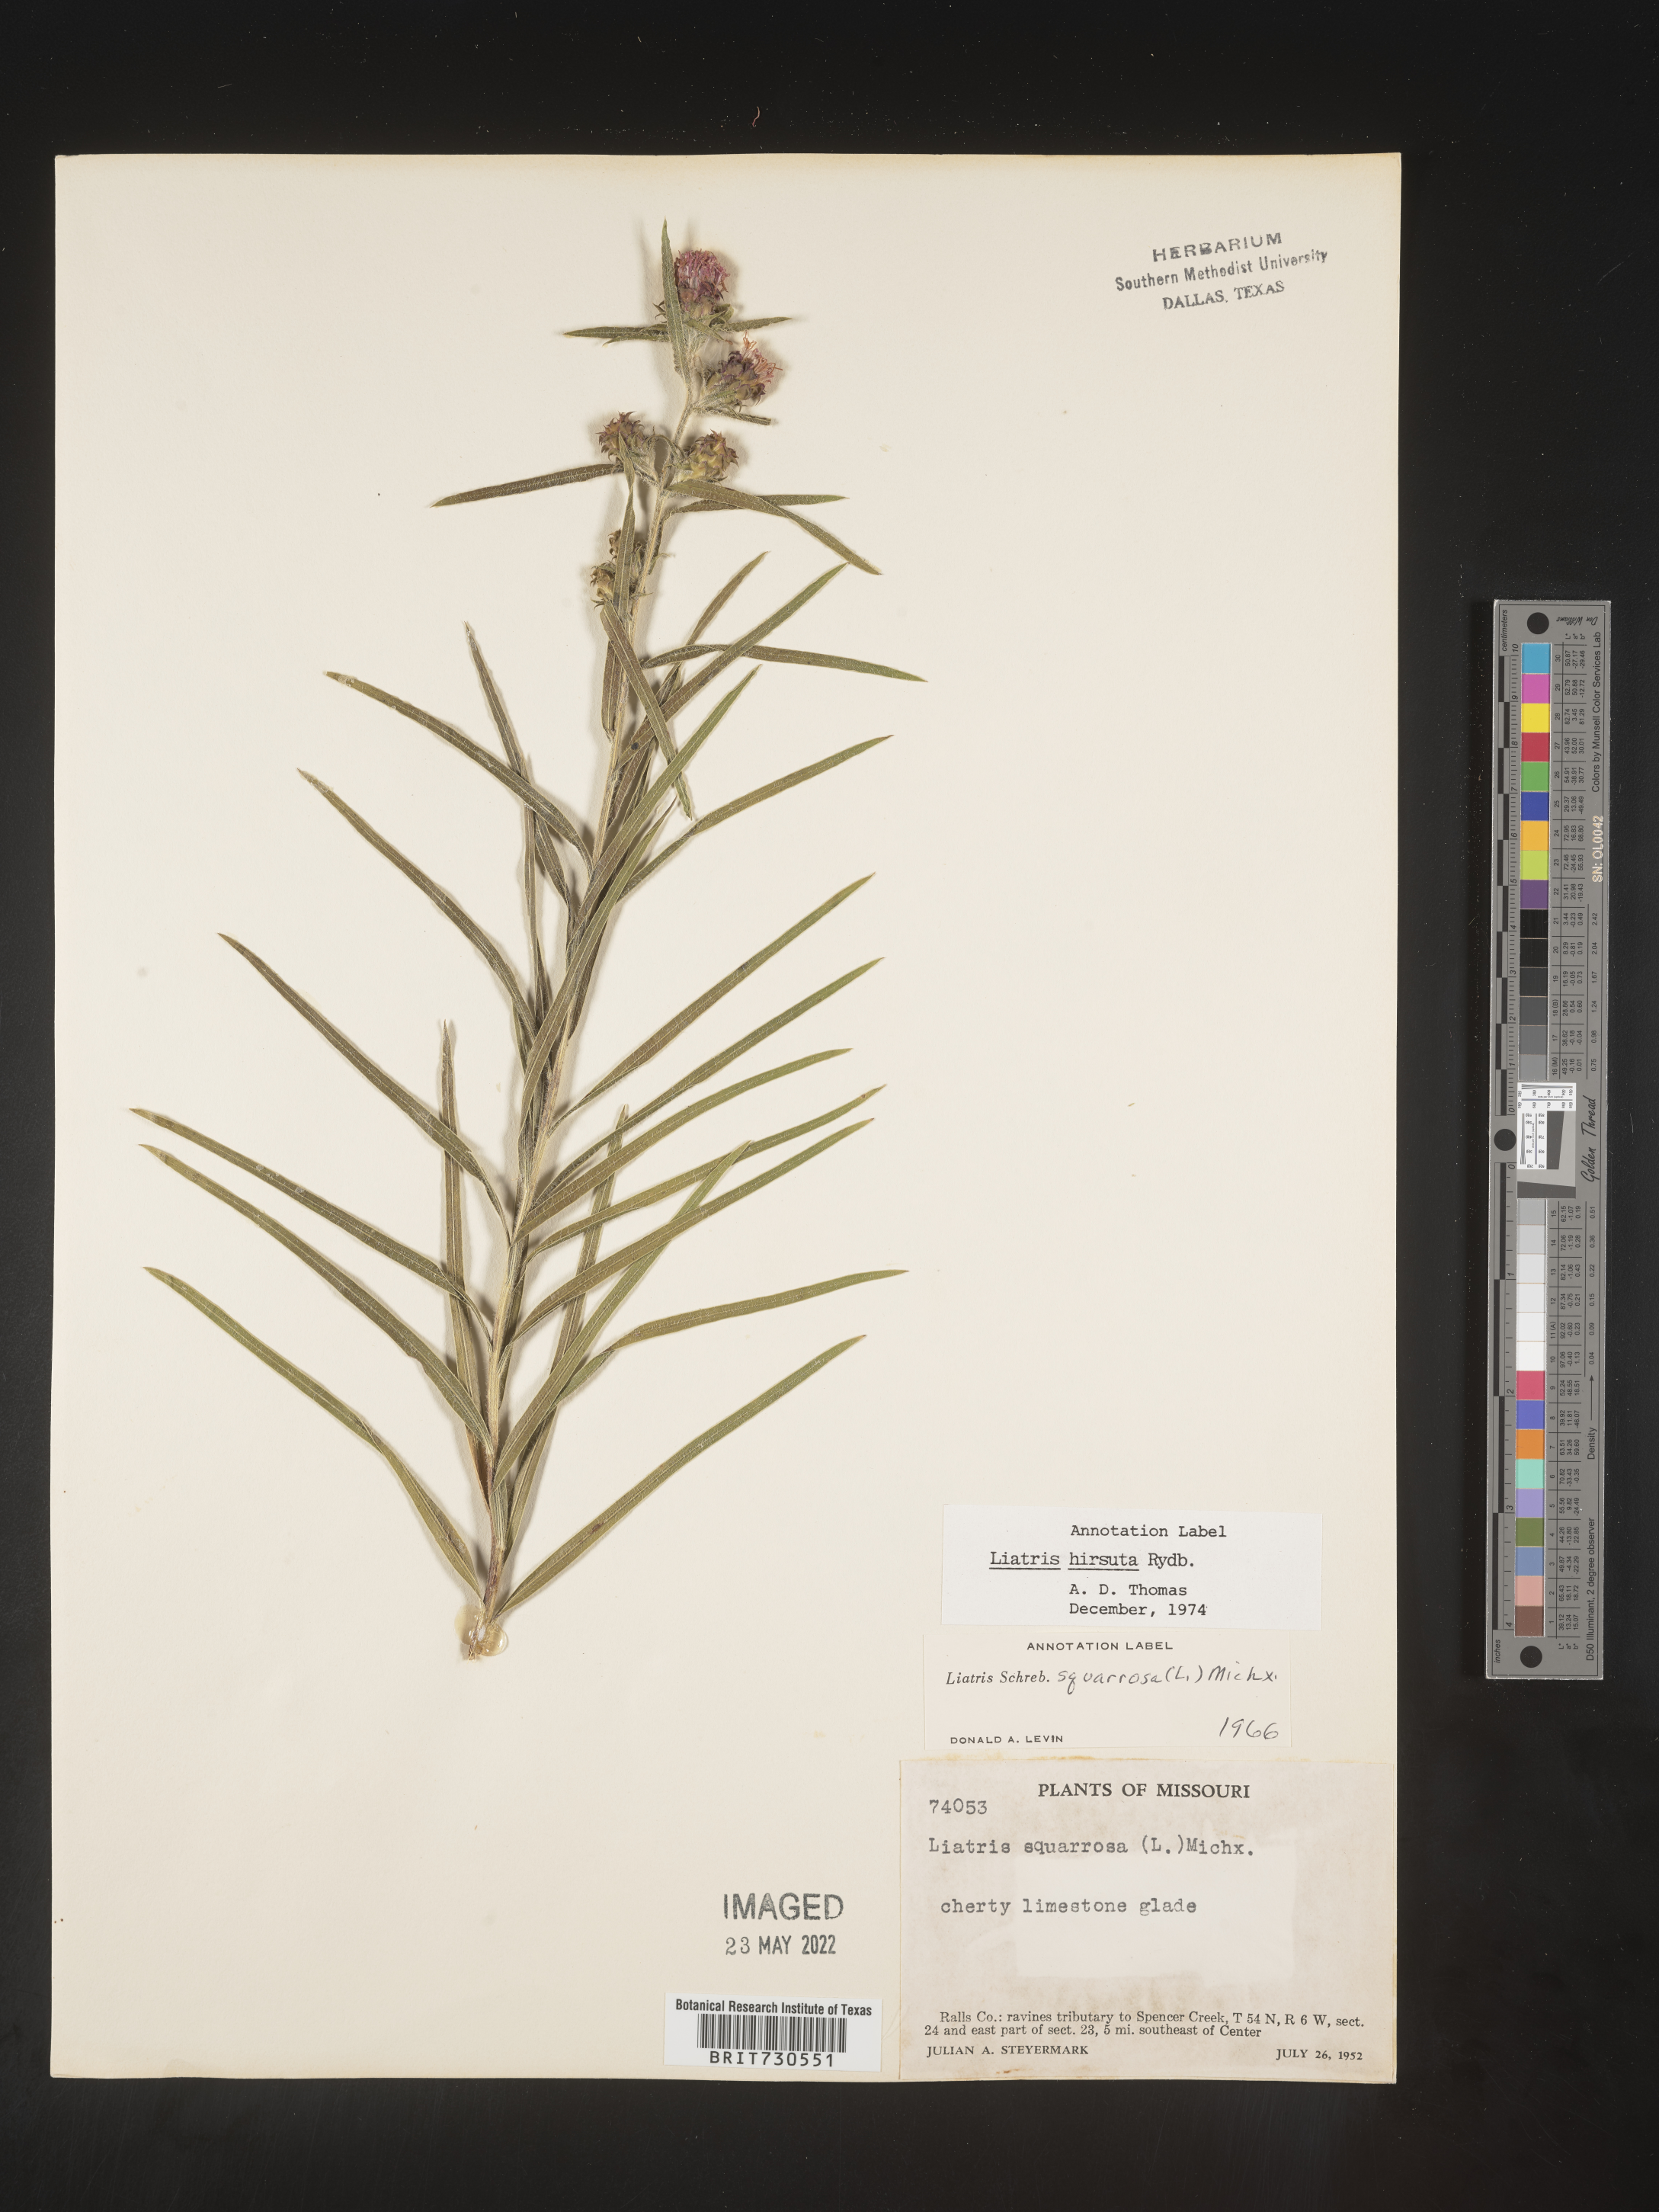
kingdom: Plantae
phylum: Tracheophyta
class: Magnoliopsida
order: Asterales
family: Asteraceae
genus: Liatris
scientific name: Liatris hirsuta
